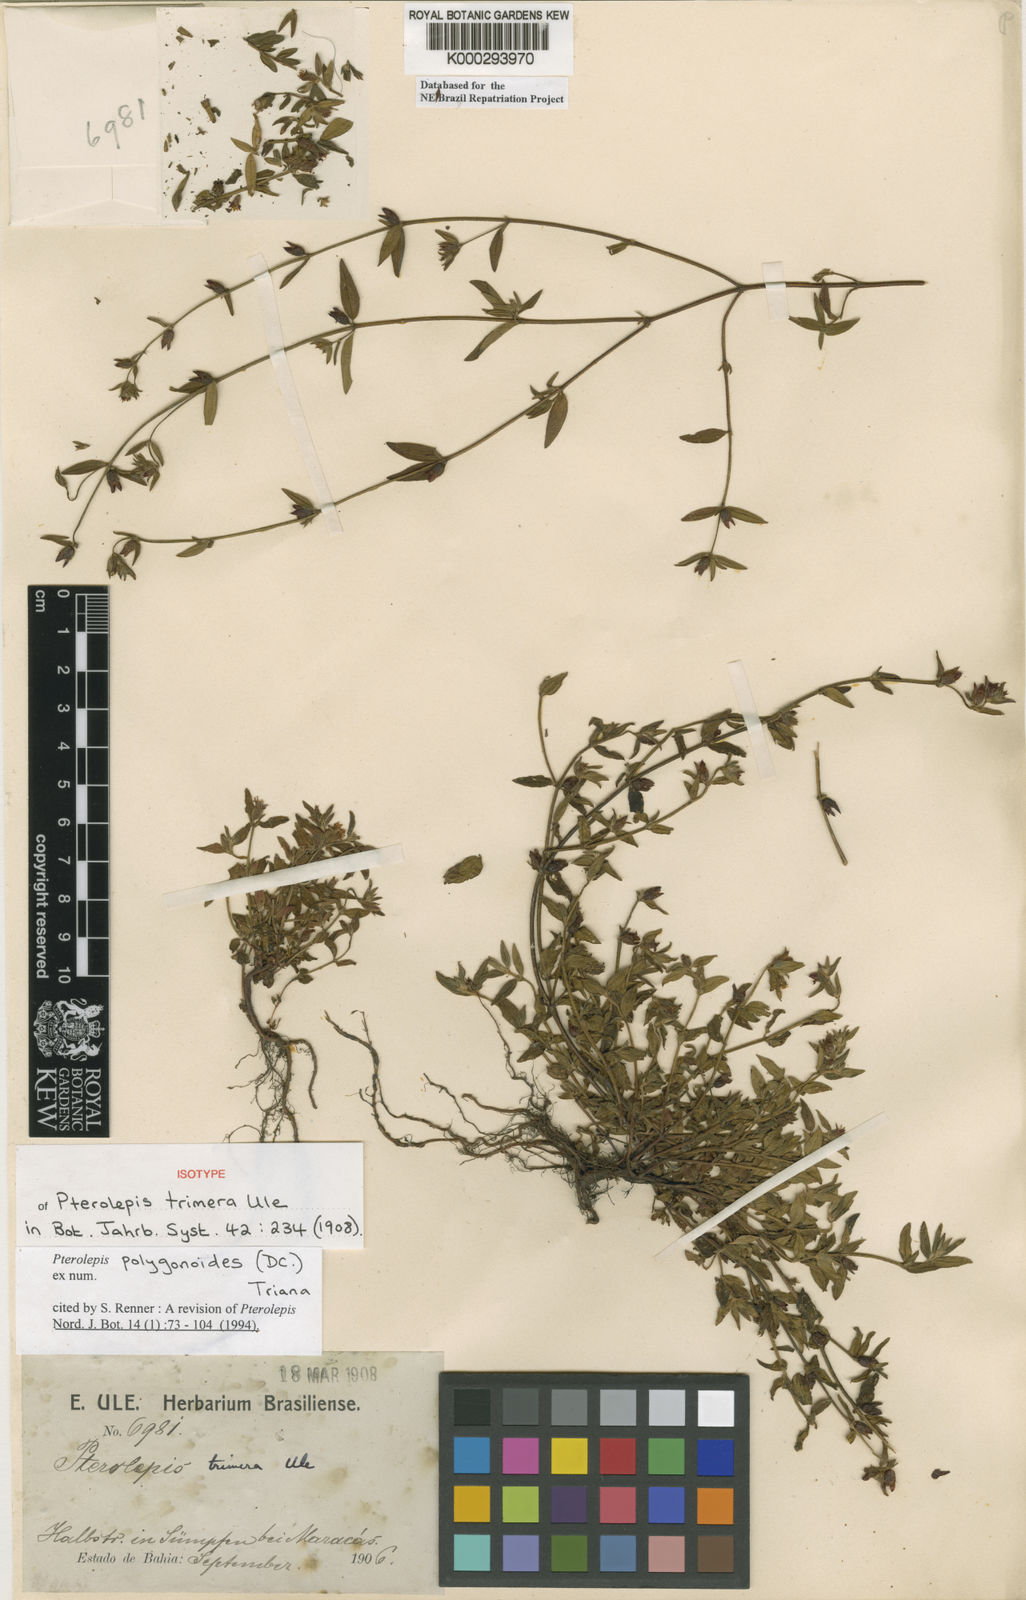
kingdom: Plantae
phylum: Tracheophyta
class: Magnoliopsida
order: Myrtales
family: Melastomataceae
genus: Pterolepis
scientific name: Pterolepis polygonoides
